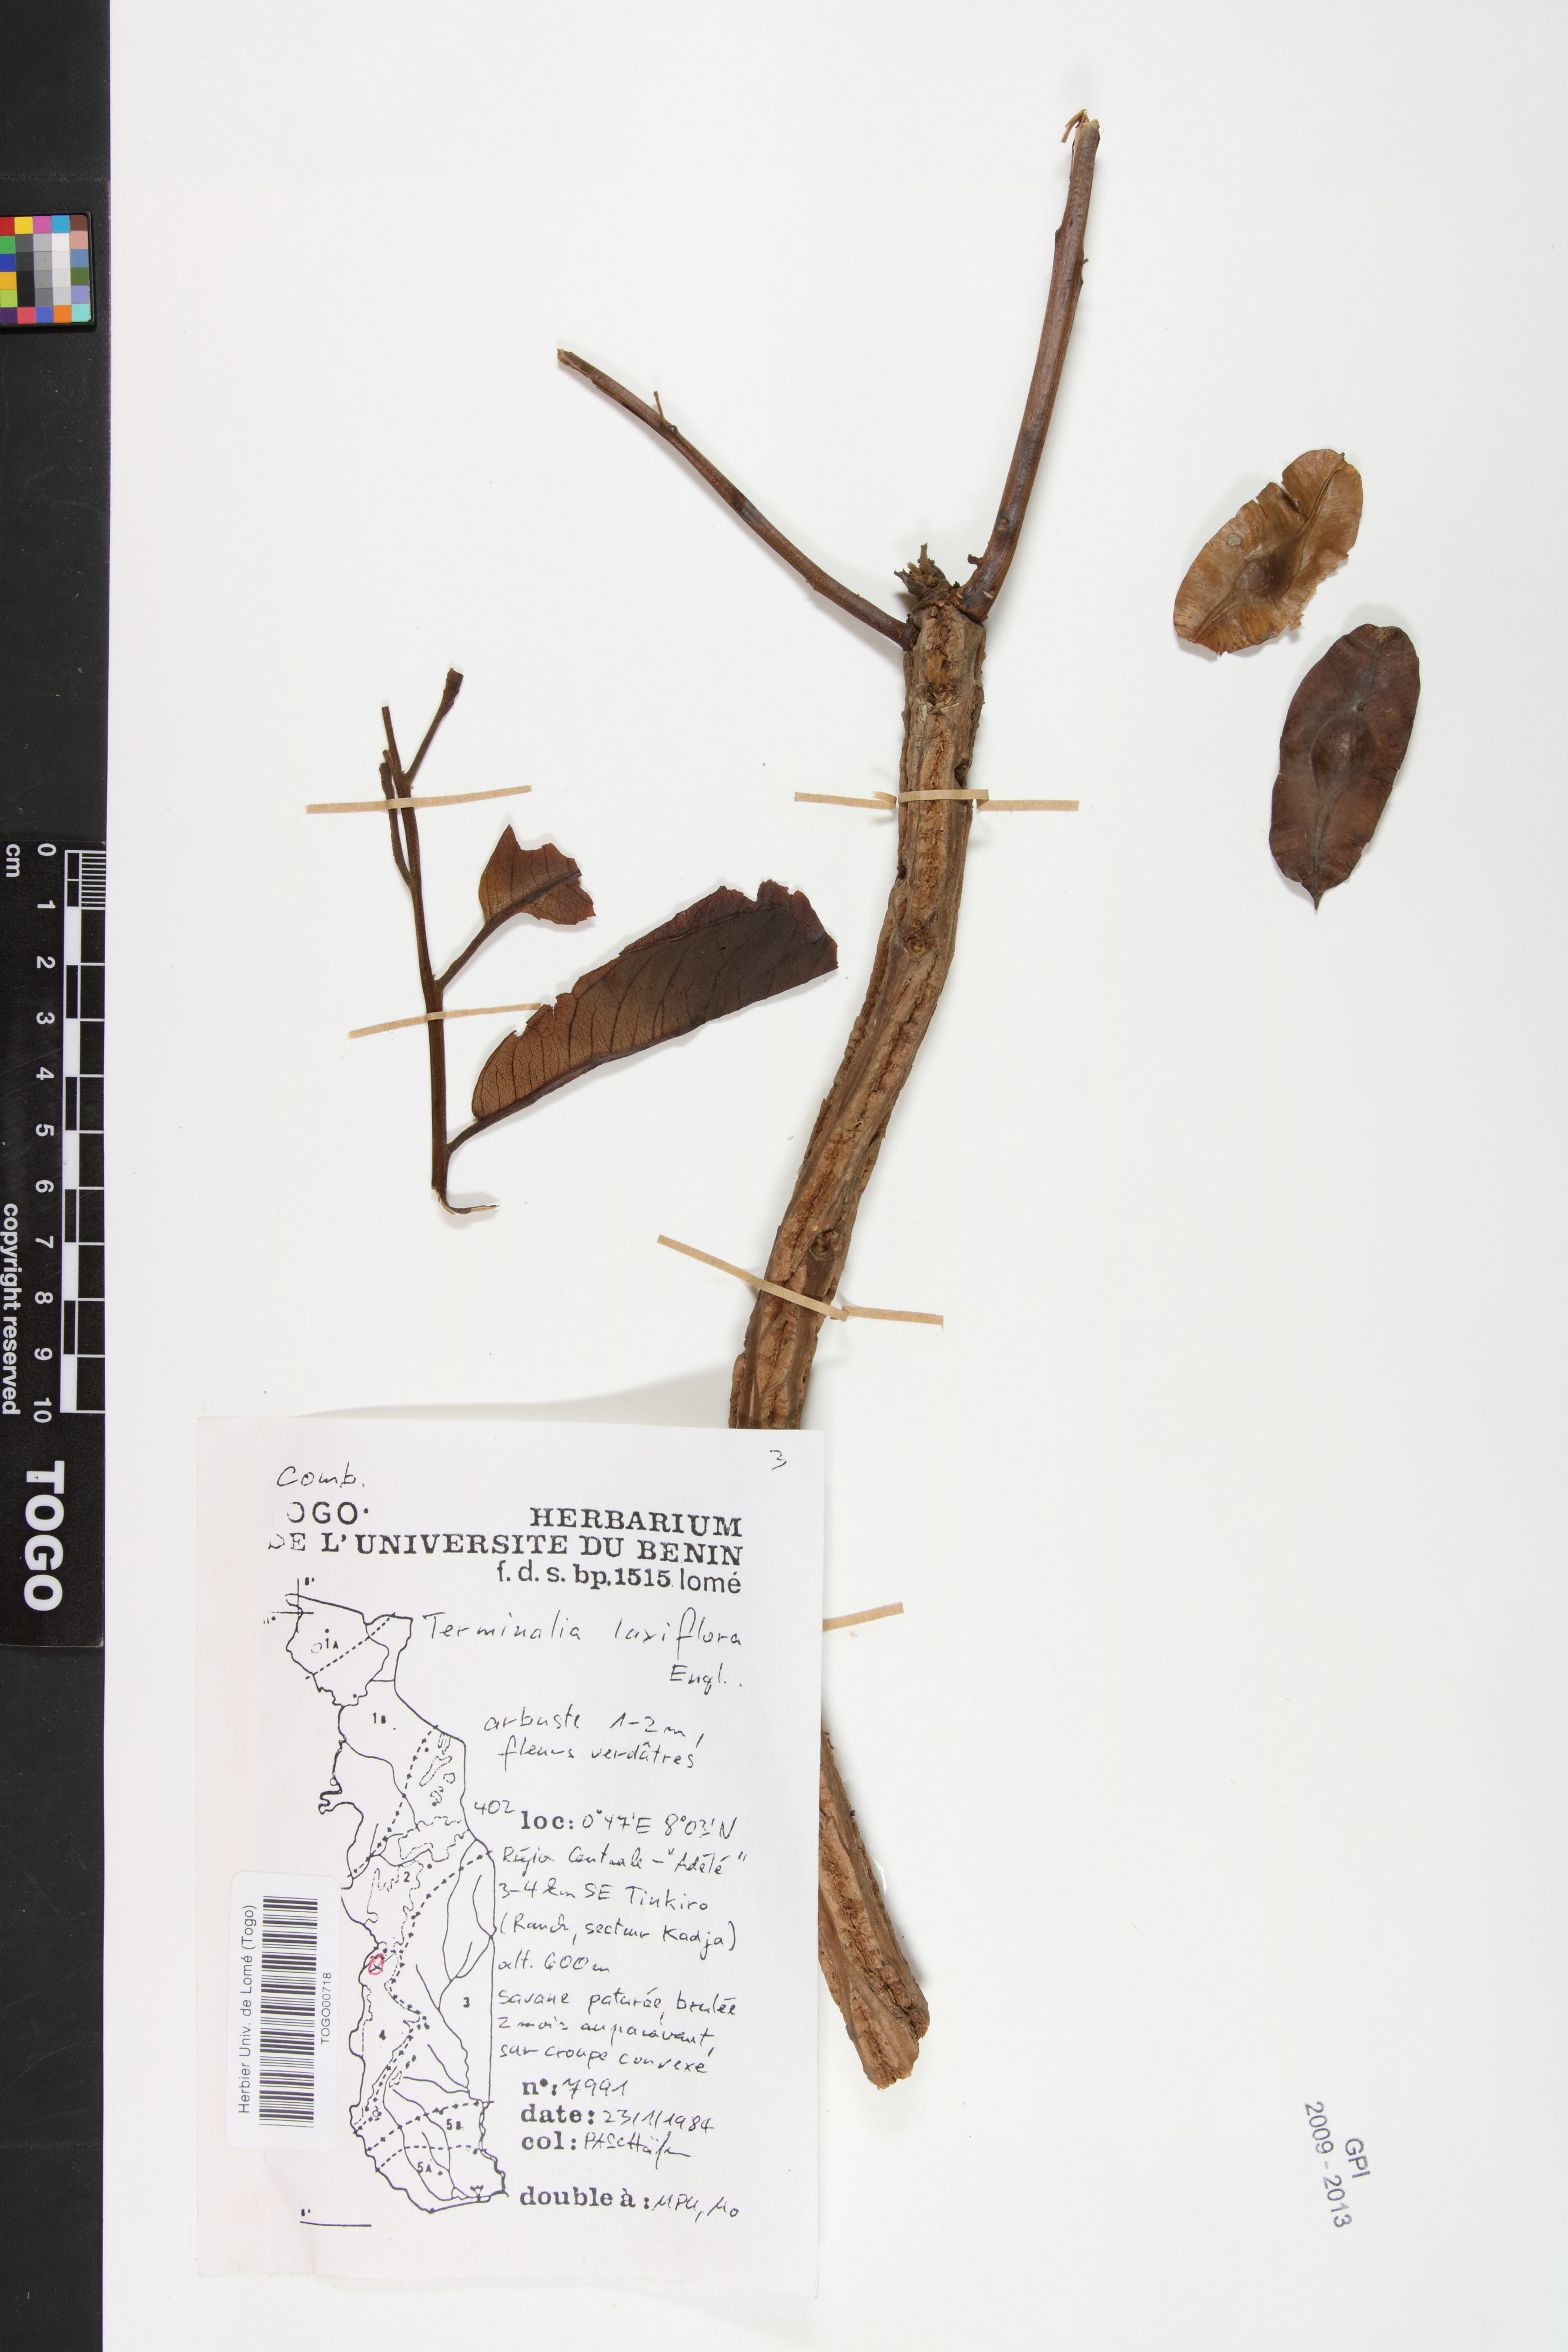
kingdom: Plantae
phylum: Tracheophyta
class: Magnoliopsida
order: Myrtales
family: Combretaceae
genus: Terminalia
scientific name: Terminalia laxiflora
